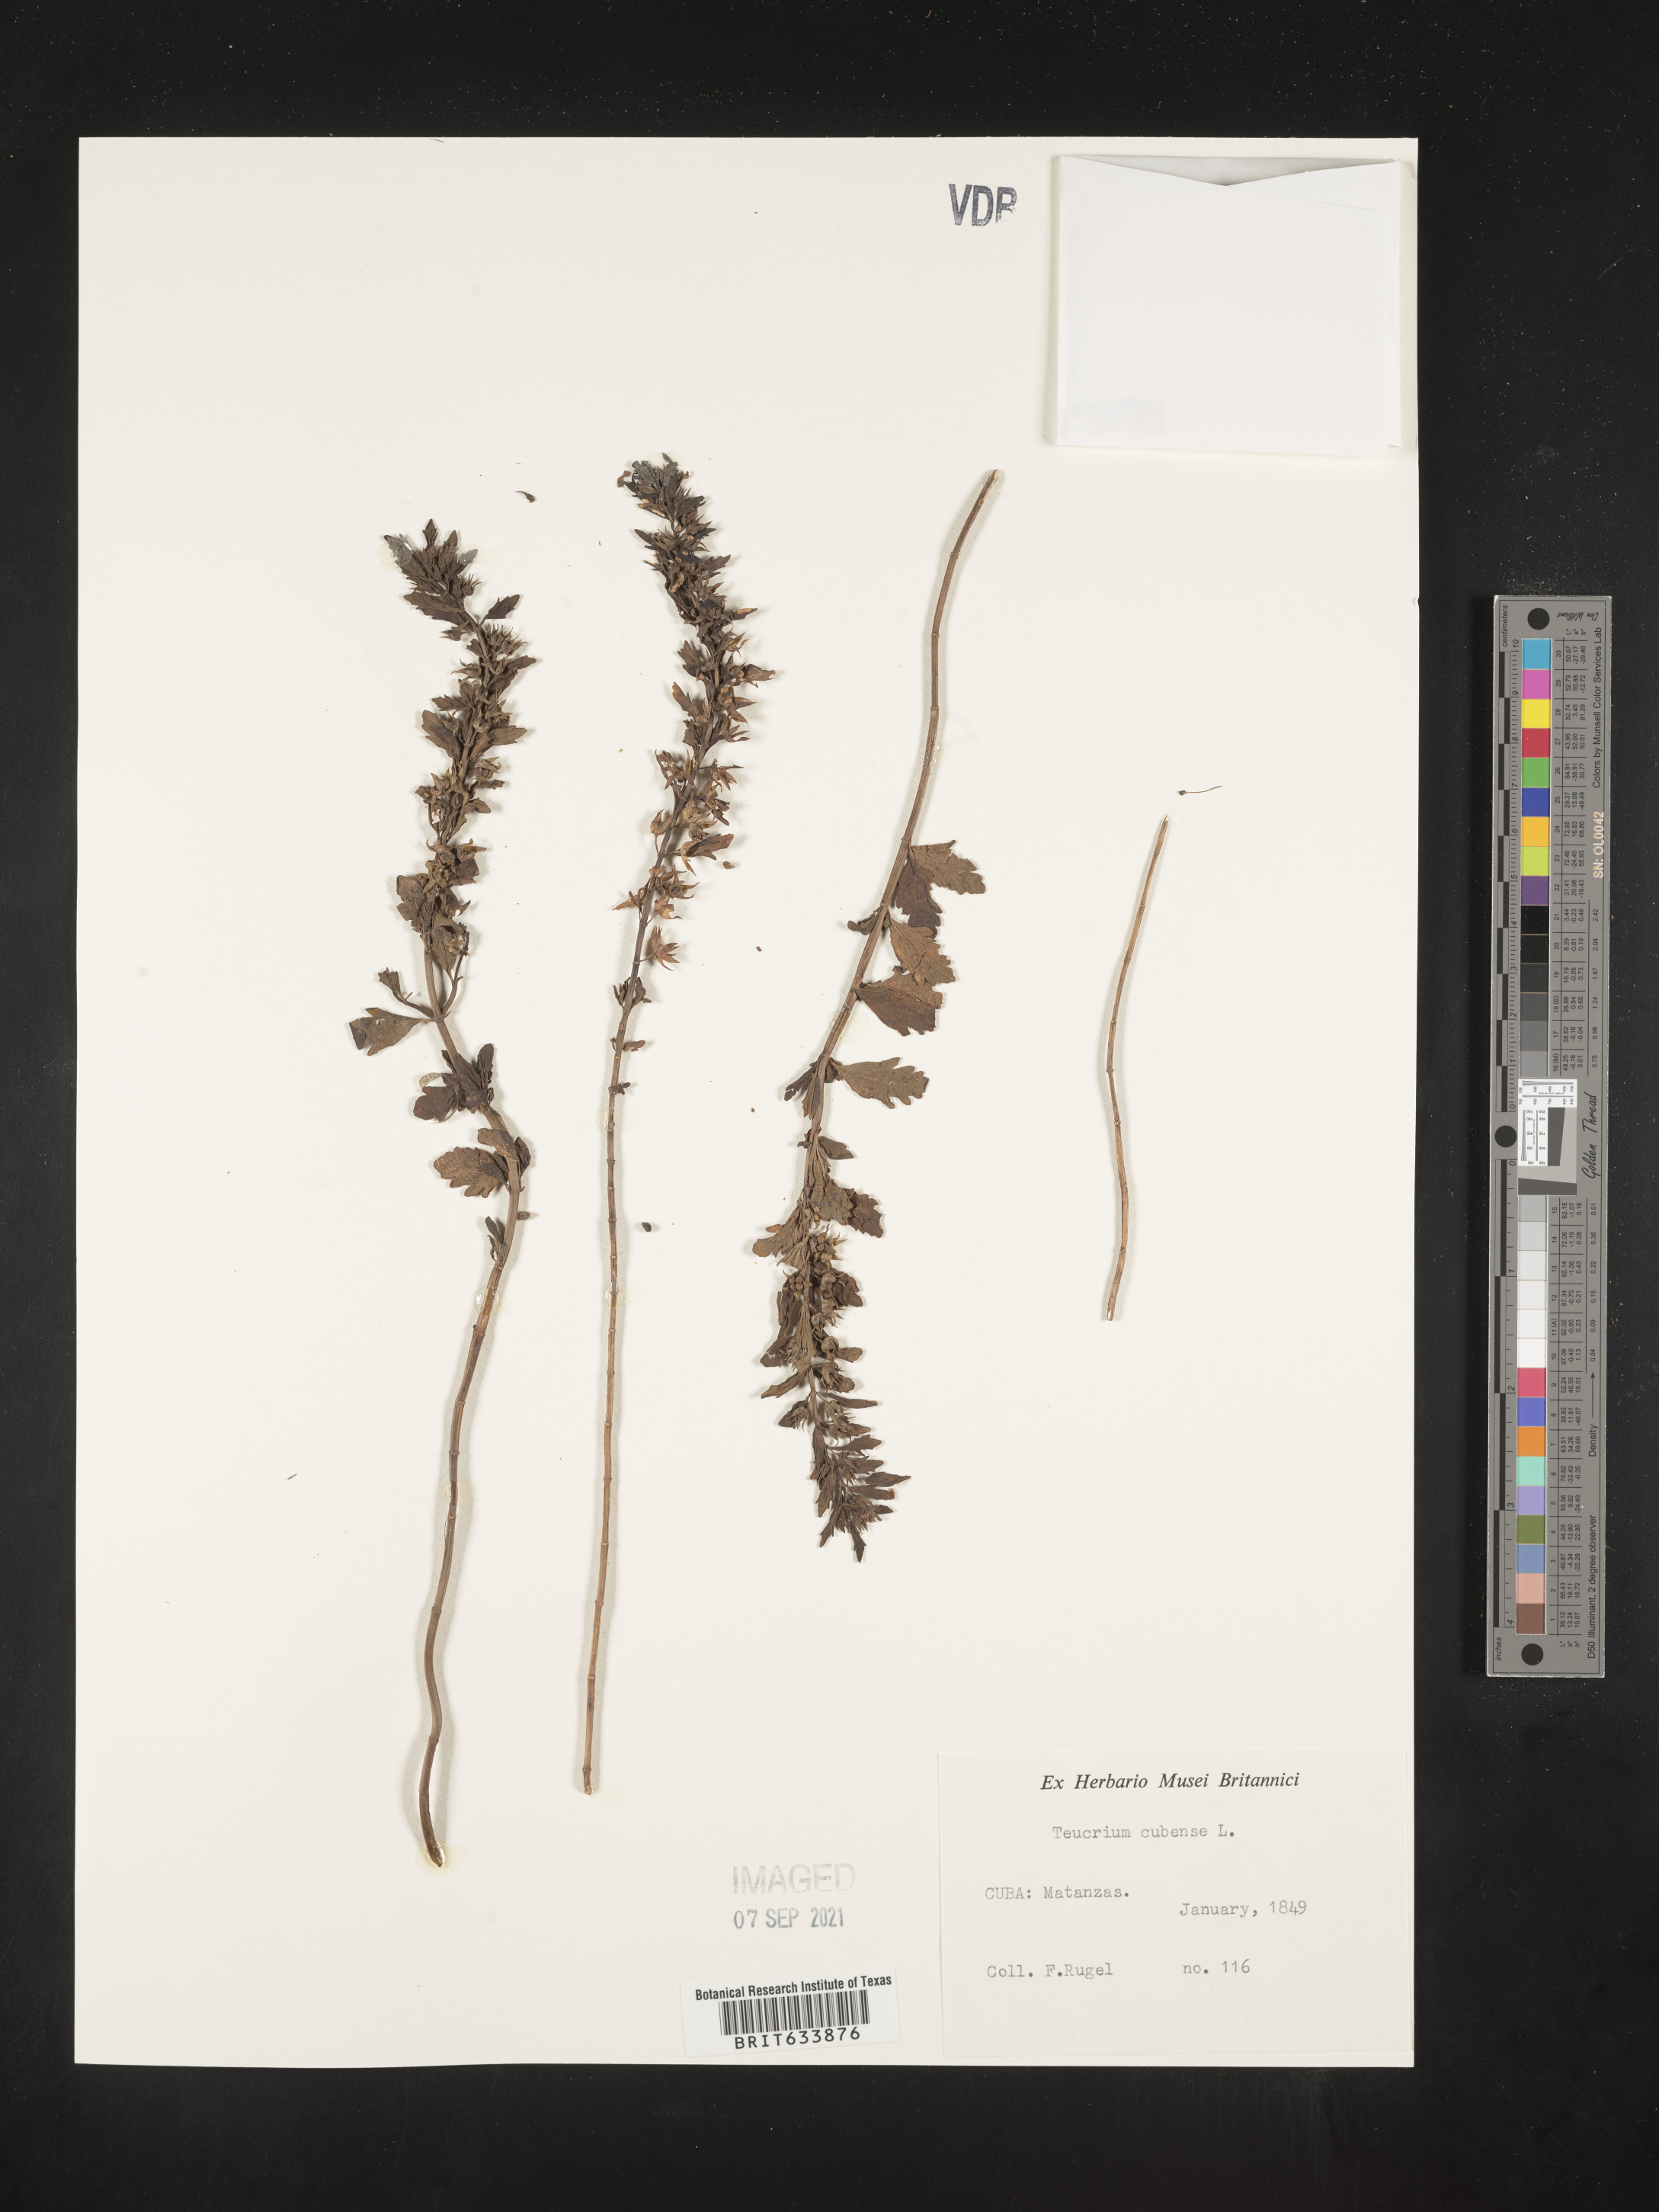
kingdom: Plantae
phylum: Tracheophyta
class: Magnoliopsida
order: Lamiales
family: Lamiaceae
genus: Teucrium
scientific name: Teucrium
